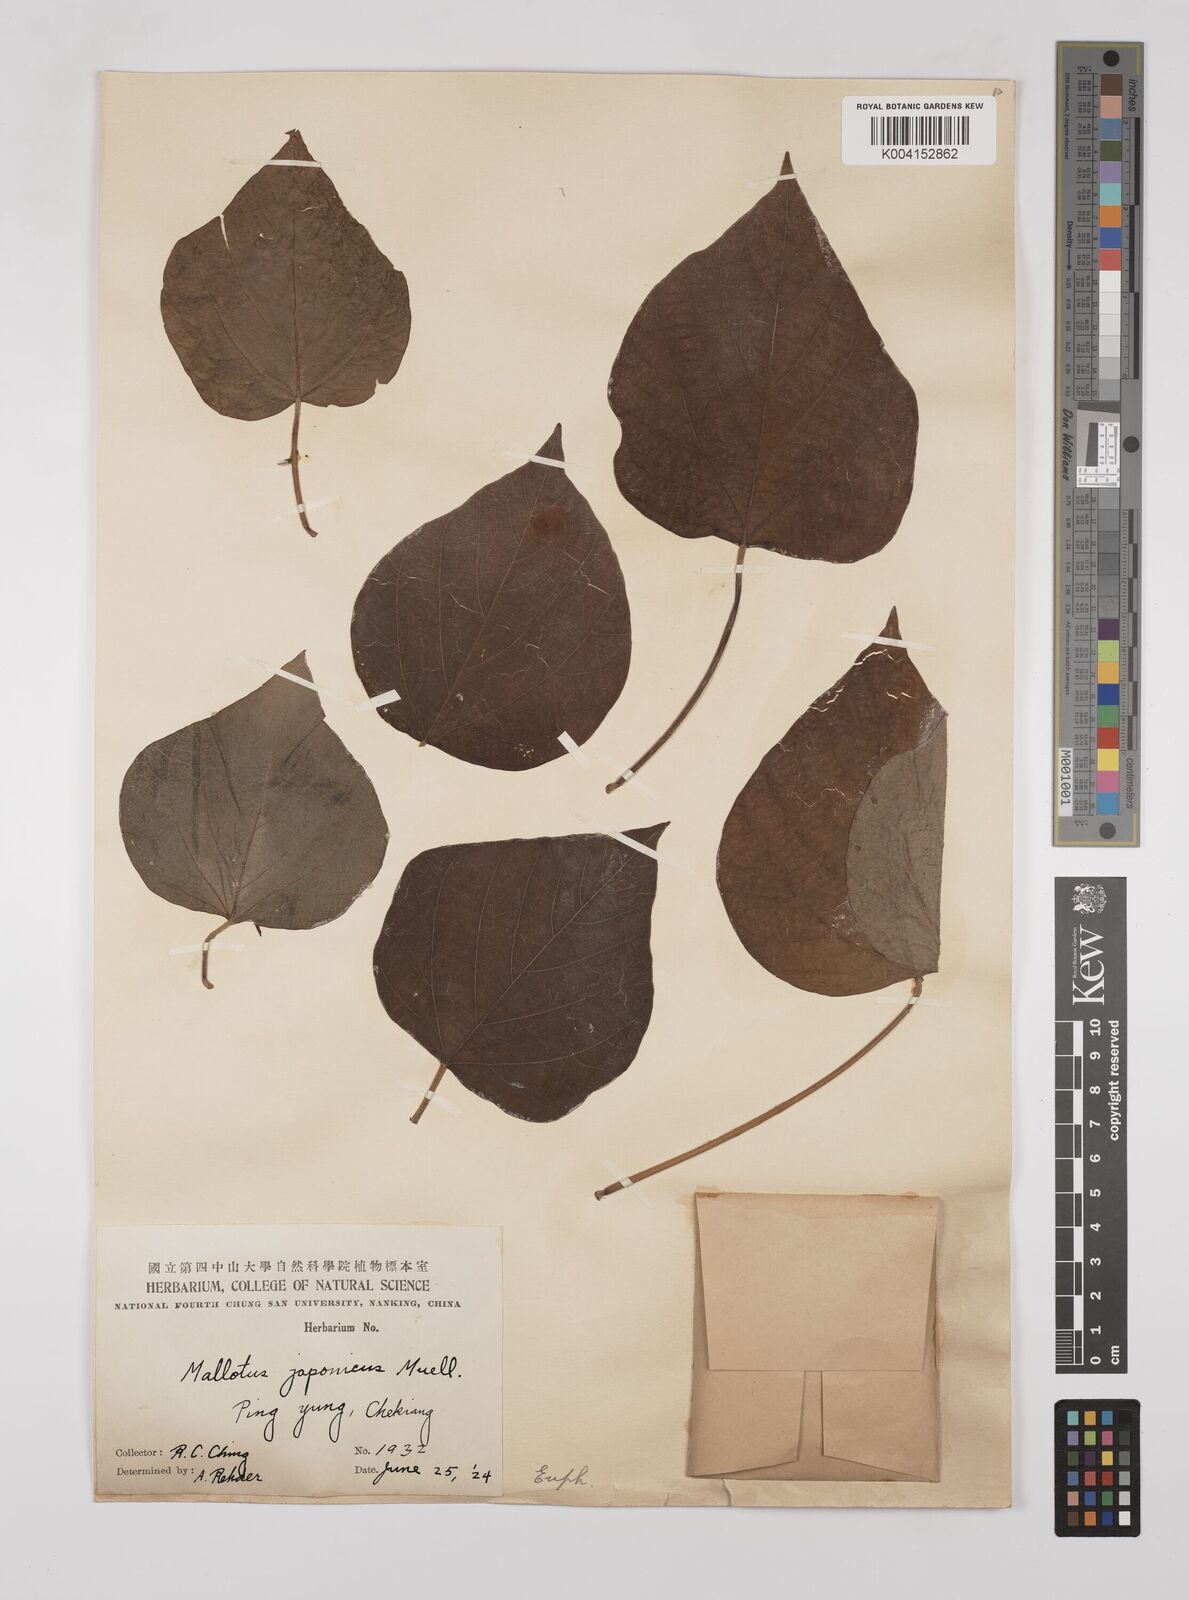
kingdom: Plantae
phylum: Tracheophyta
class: Magnoliopsida
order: Malpighiales
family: Euphorbiaceae
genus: Mallotus
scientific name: Mallotus lianus
